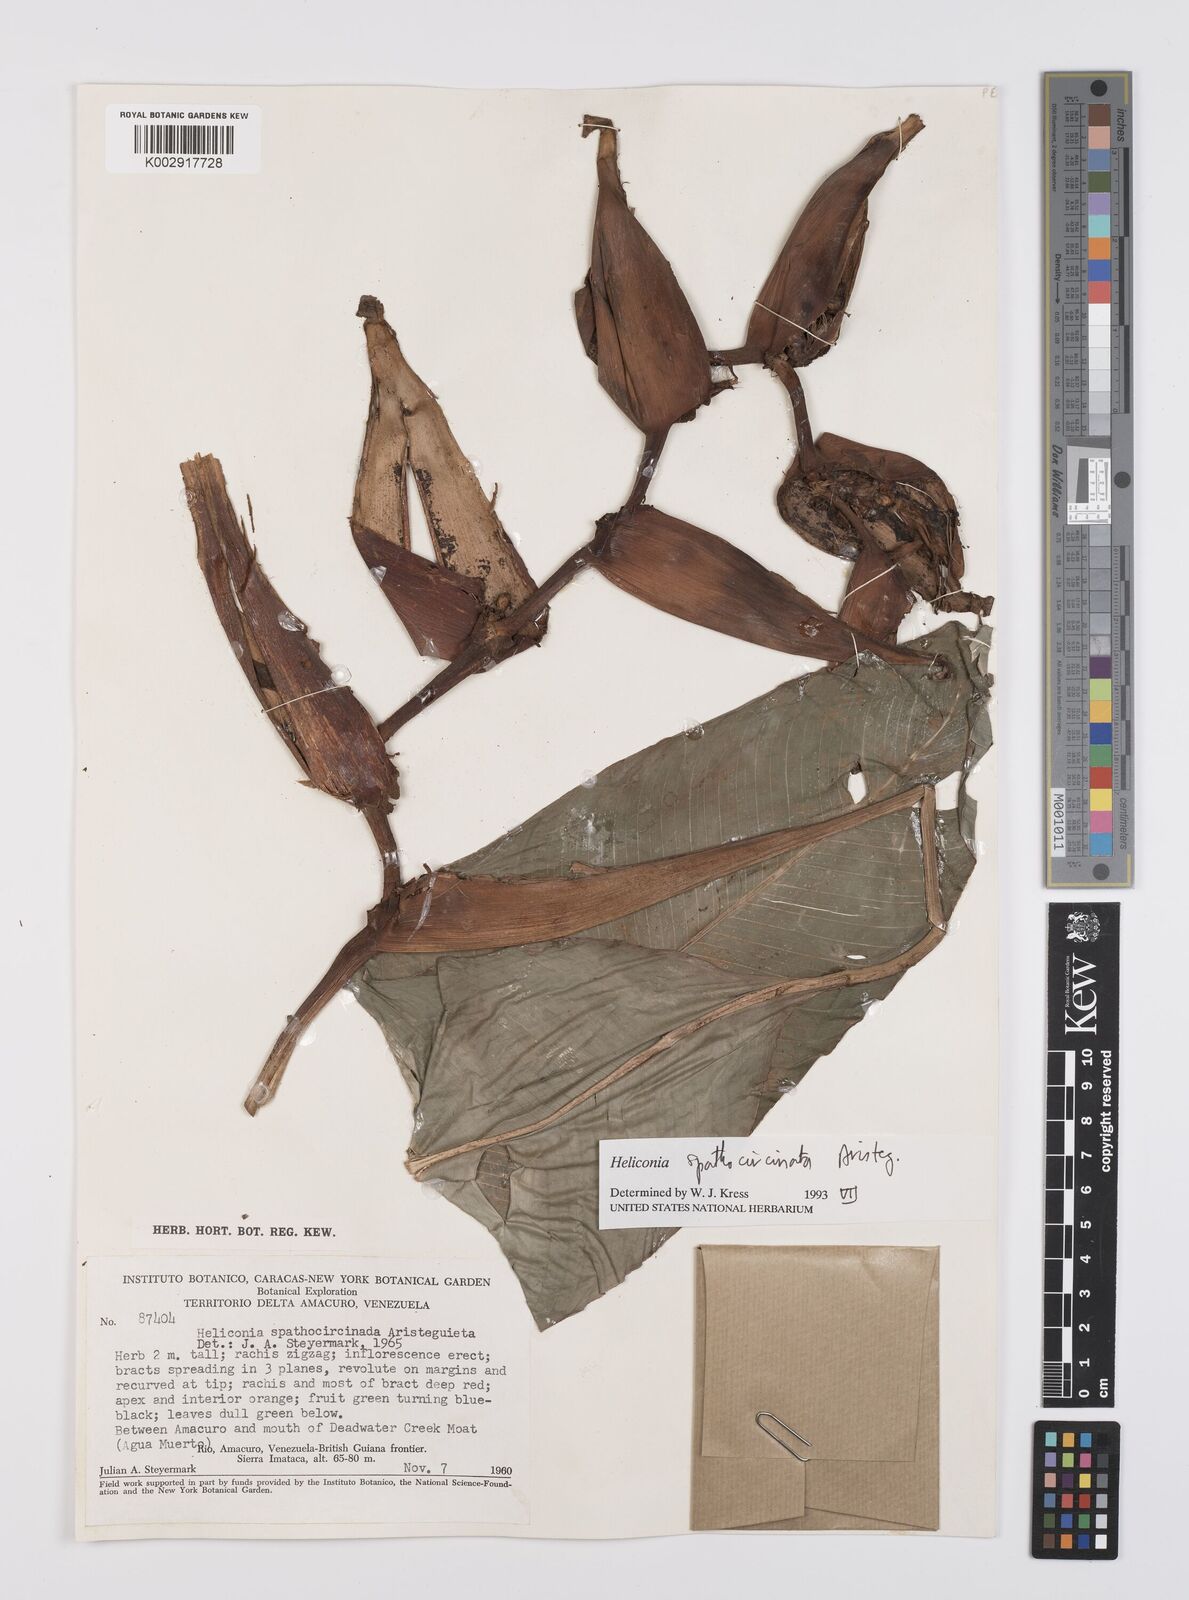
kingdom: Plantae
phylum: Tracheophyta
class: Liliopsida
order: Zingiberales
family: Heliconiaceae
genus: Heliconia
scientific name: Heliconia spathocircinata
